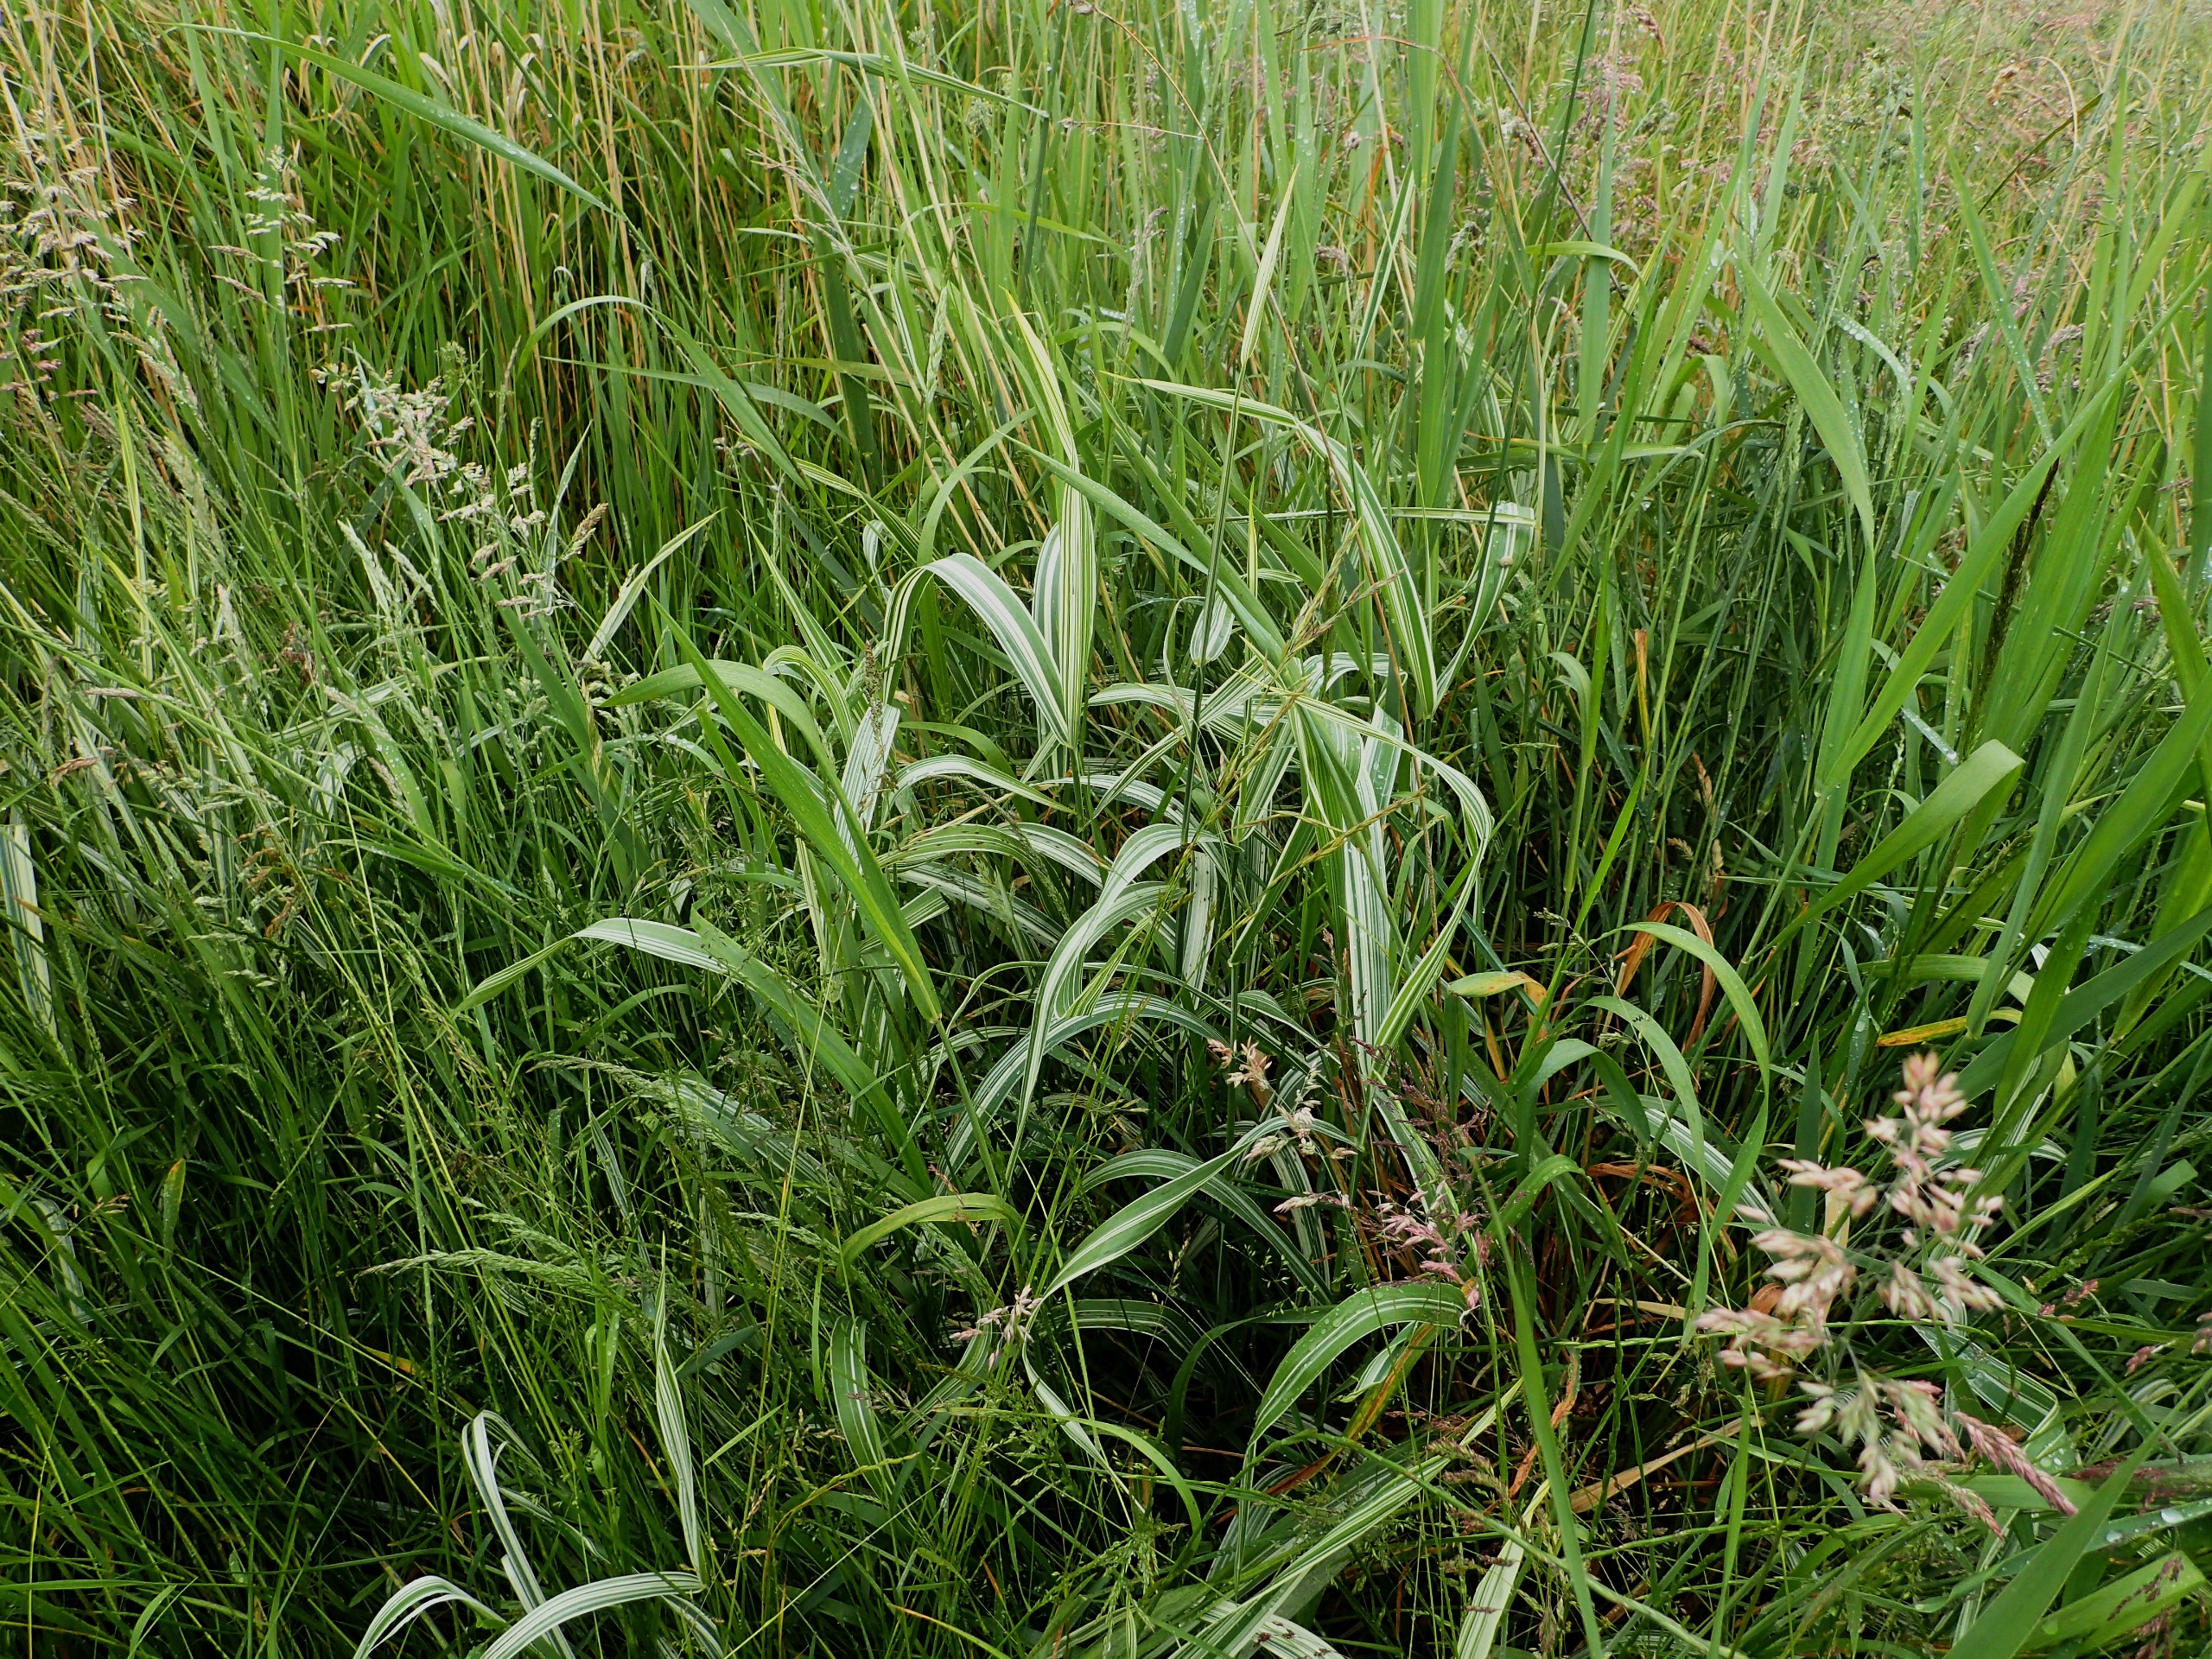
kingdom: Plantae
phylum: Tracheophyta
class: Liliopsida
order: Poales
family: Poaceae
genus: Phalaris
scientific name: Phalaris arundinacea
